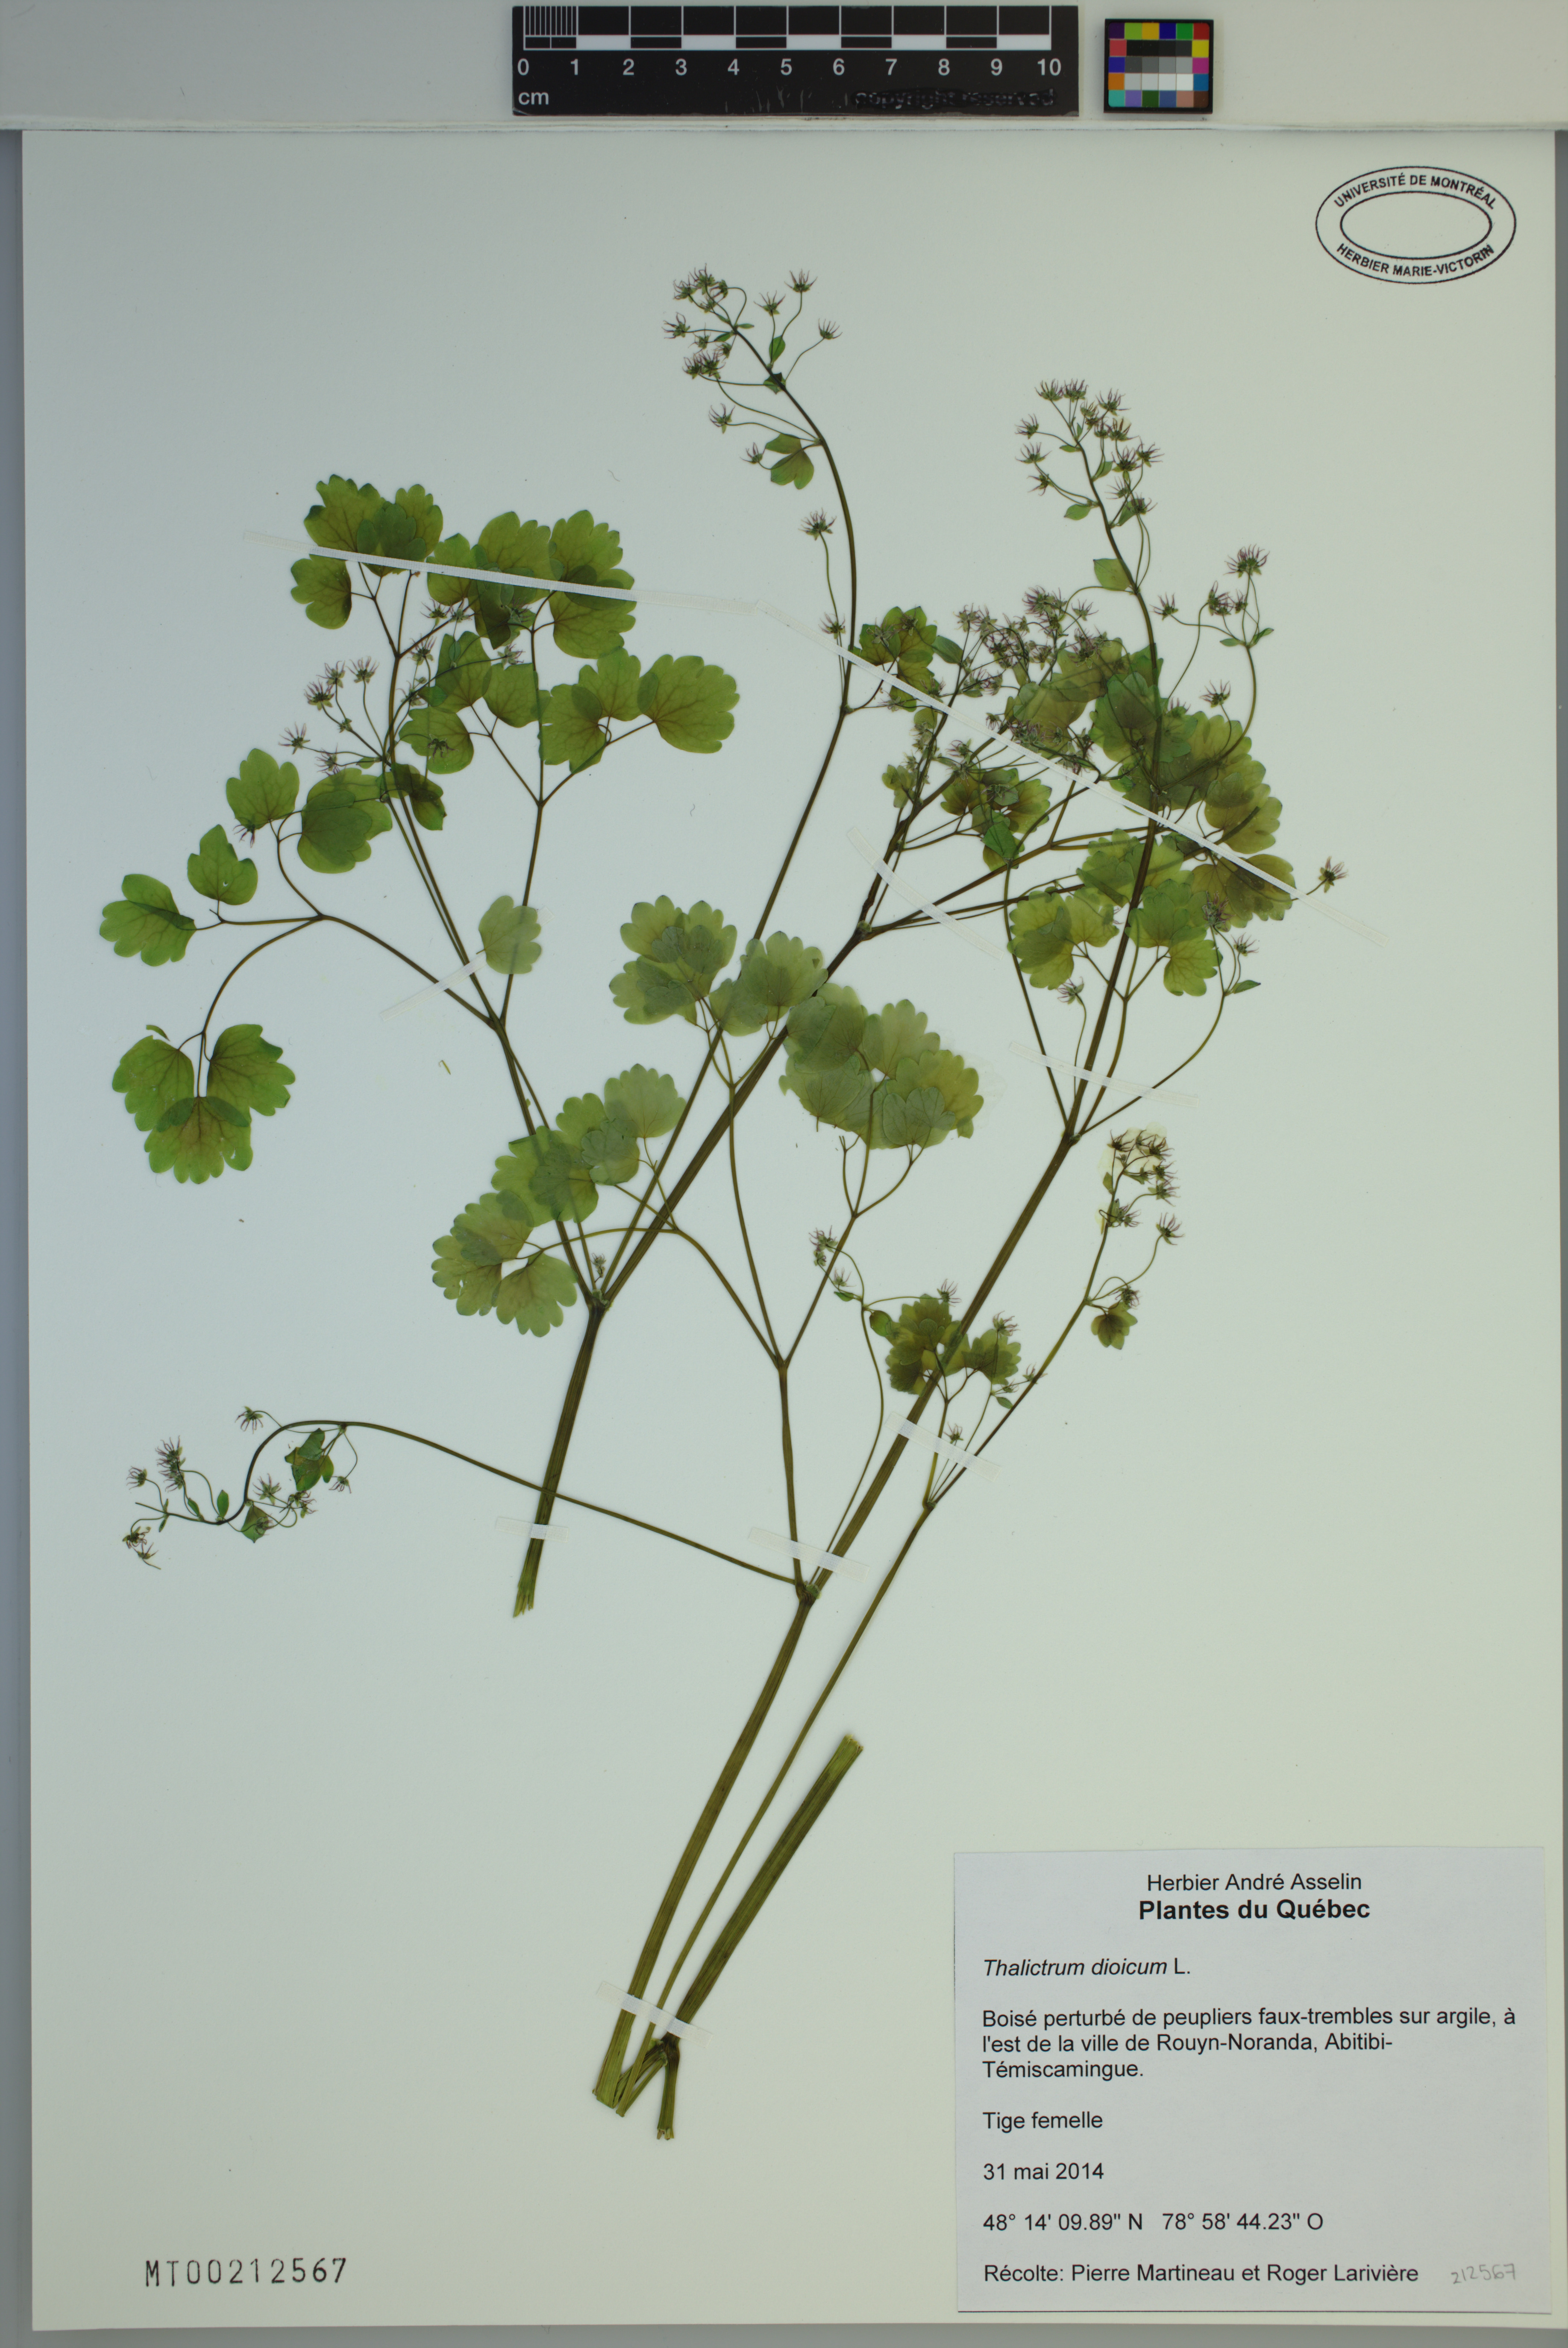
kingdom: Plantae
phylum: Tracheophyta
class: Magnoliopsida
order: Ranunculales
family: Ranunculaceae
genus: Thalictrum
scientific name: Thalictrum dioicum
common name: Early meadow-rue
